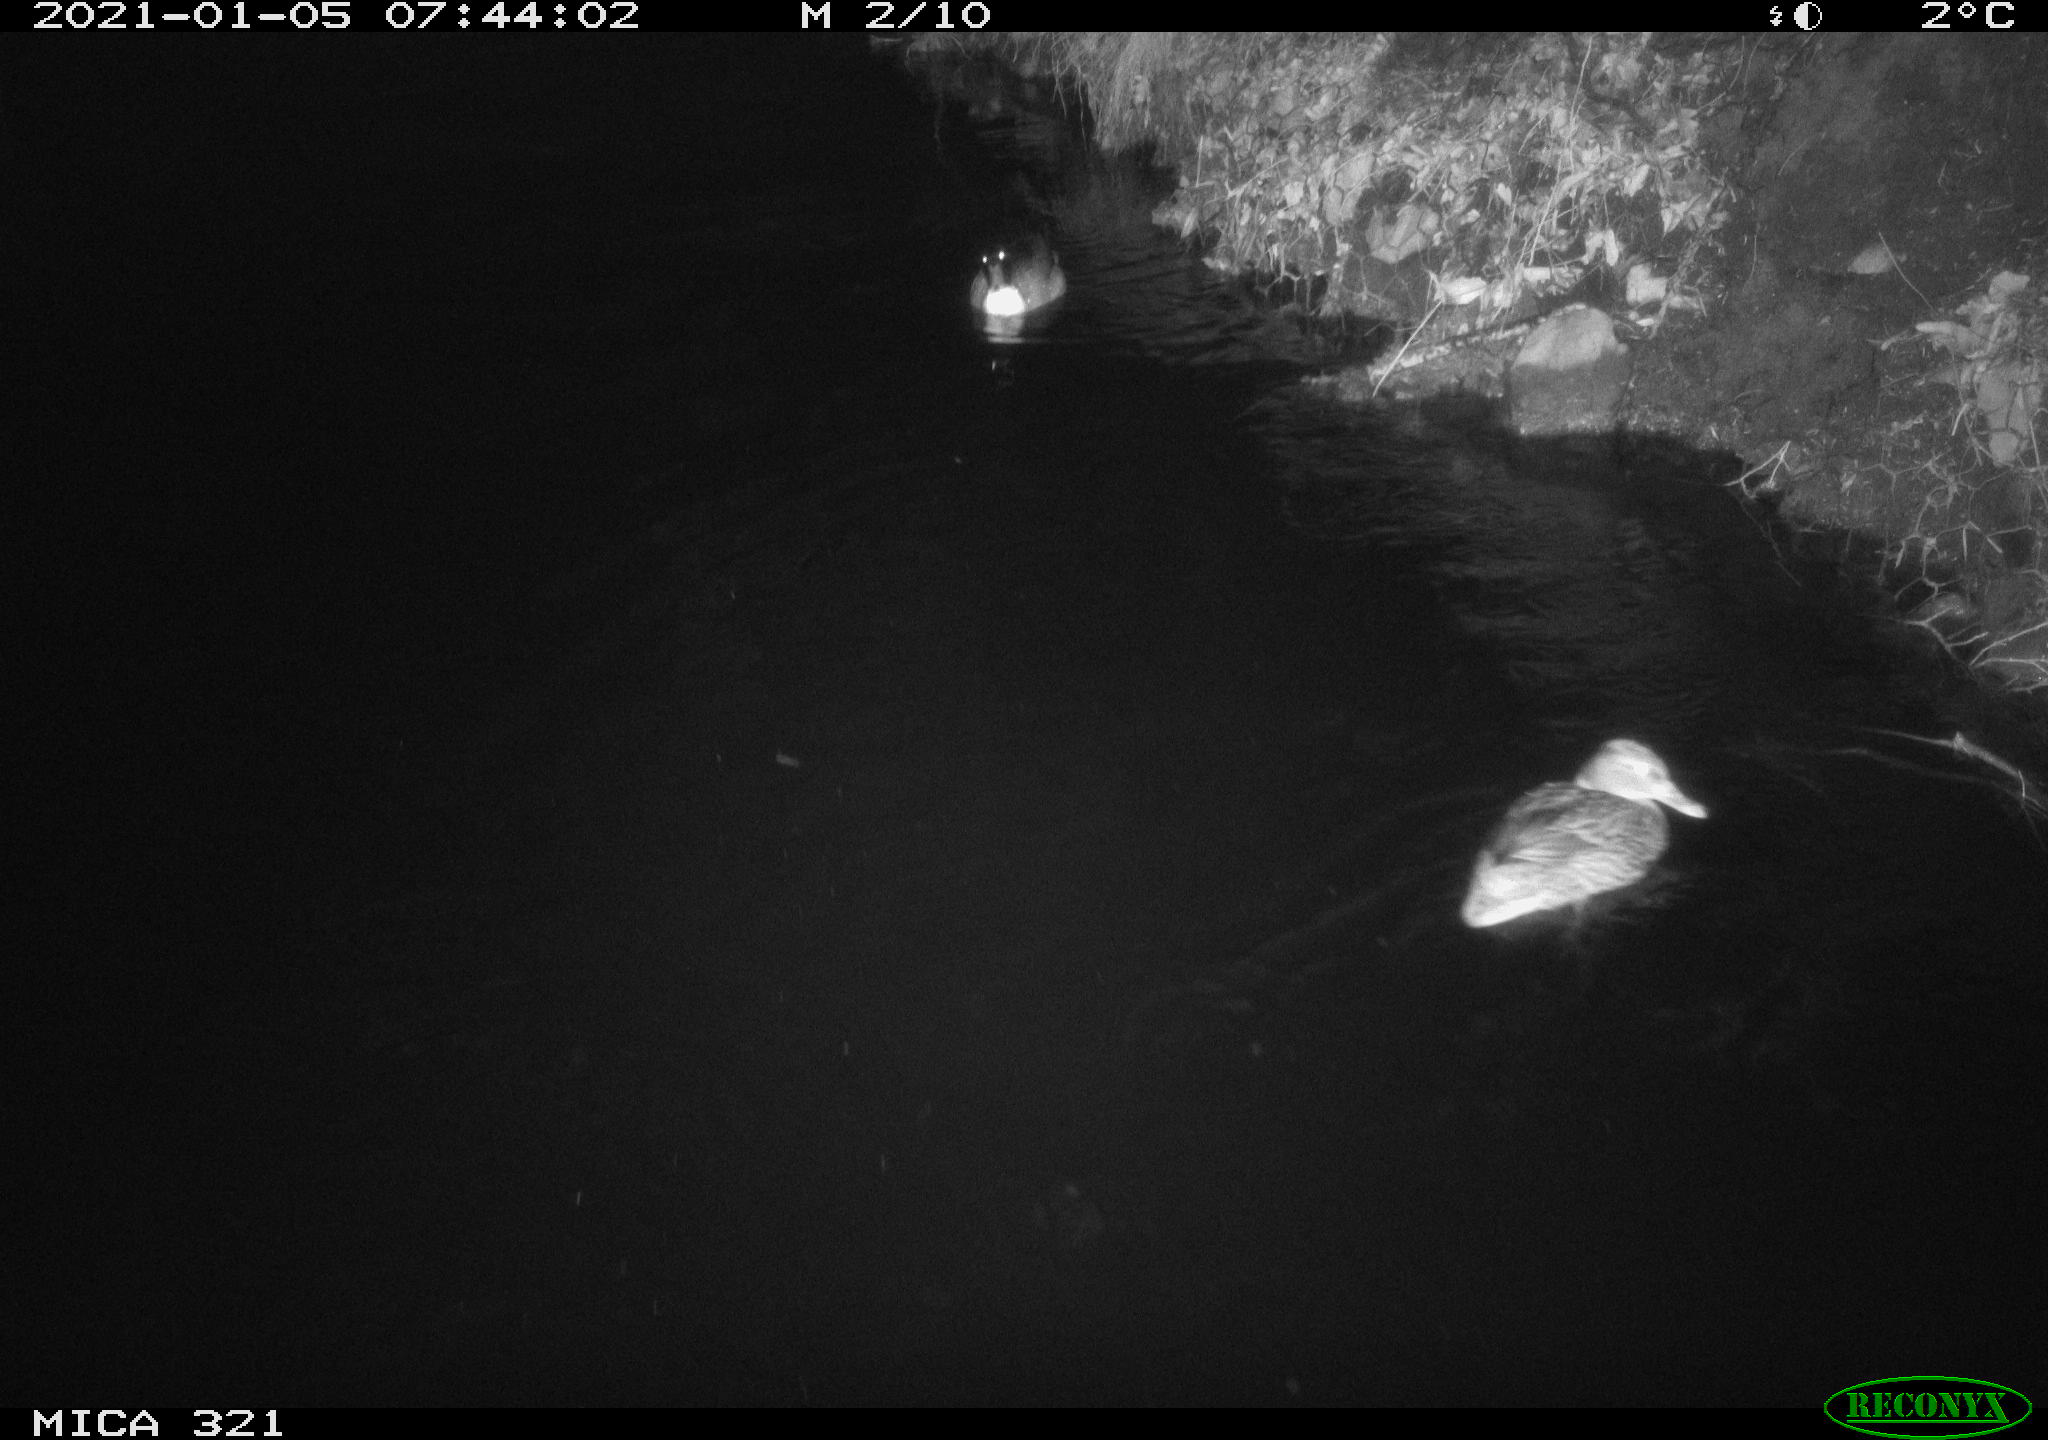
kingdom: Animalia
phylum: Chordata
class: Aves
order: Anseriformes
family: Anatidae
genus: Anas
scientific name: Anas platyrhynchos
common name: Mallard
